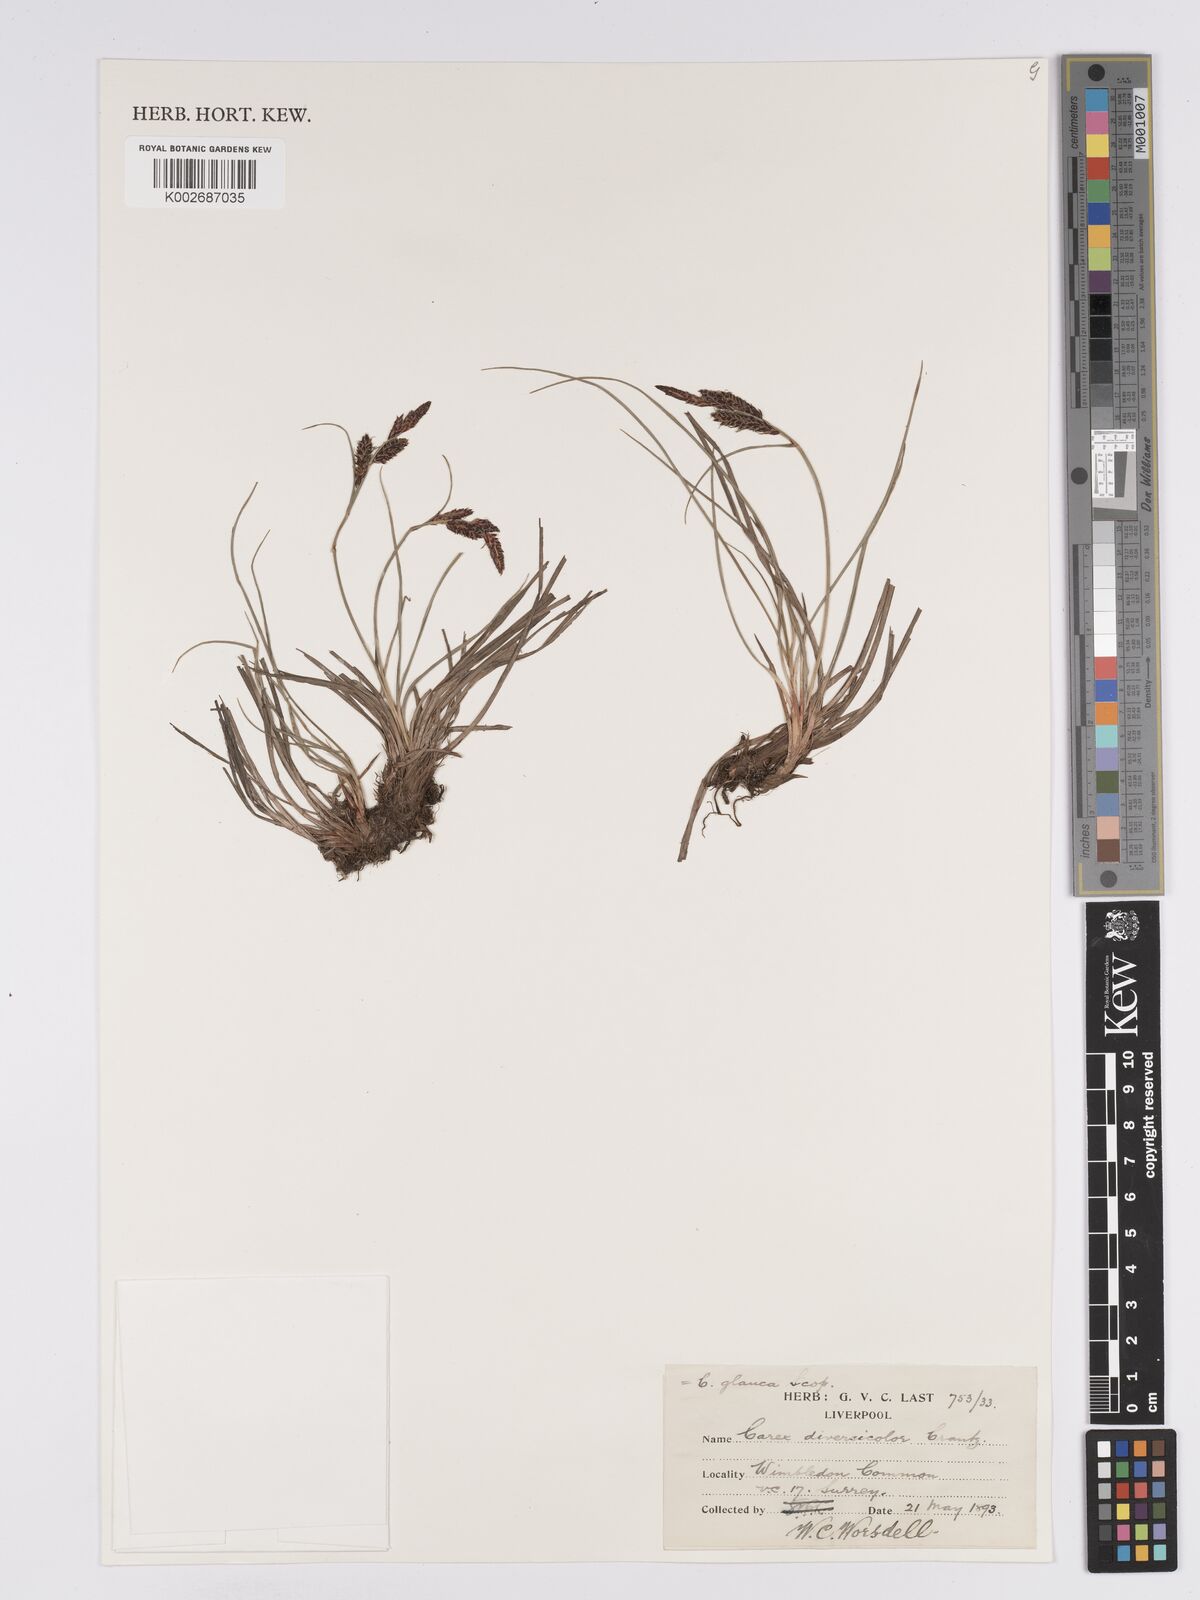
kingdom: Plantae
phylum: Tracheophyta
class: Liliopsida
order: Poales
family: Cyperaceae
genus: Carex
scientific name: Carex nigra
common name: Common sedge
